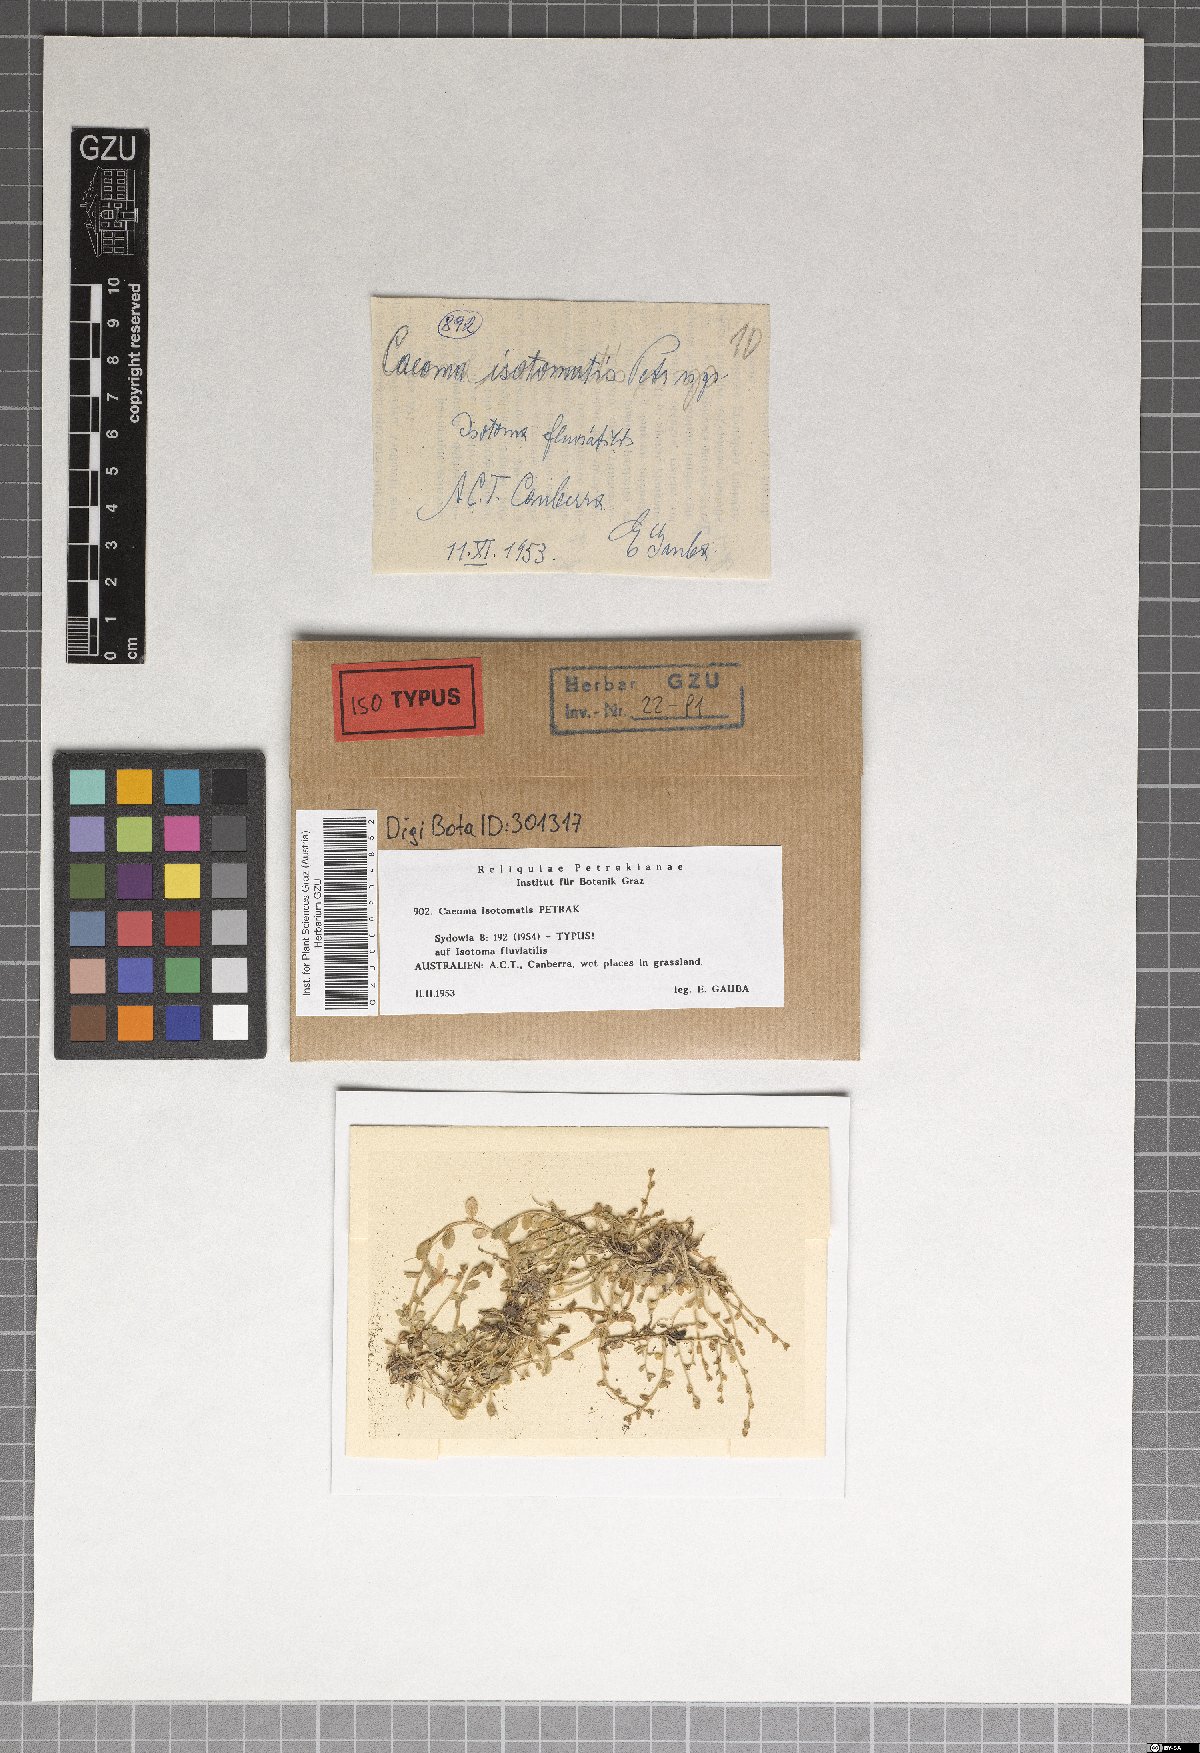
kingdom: Fungi
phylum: Basidiomycota
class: Pucciniomycetes
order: Pucciniales
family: Pucciniaceae
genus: Caeoma
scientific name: Caeoma
